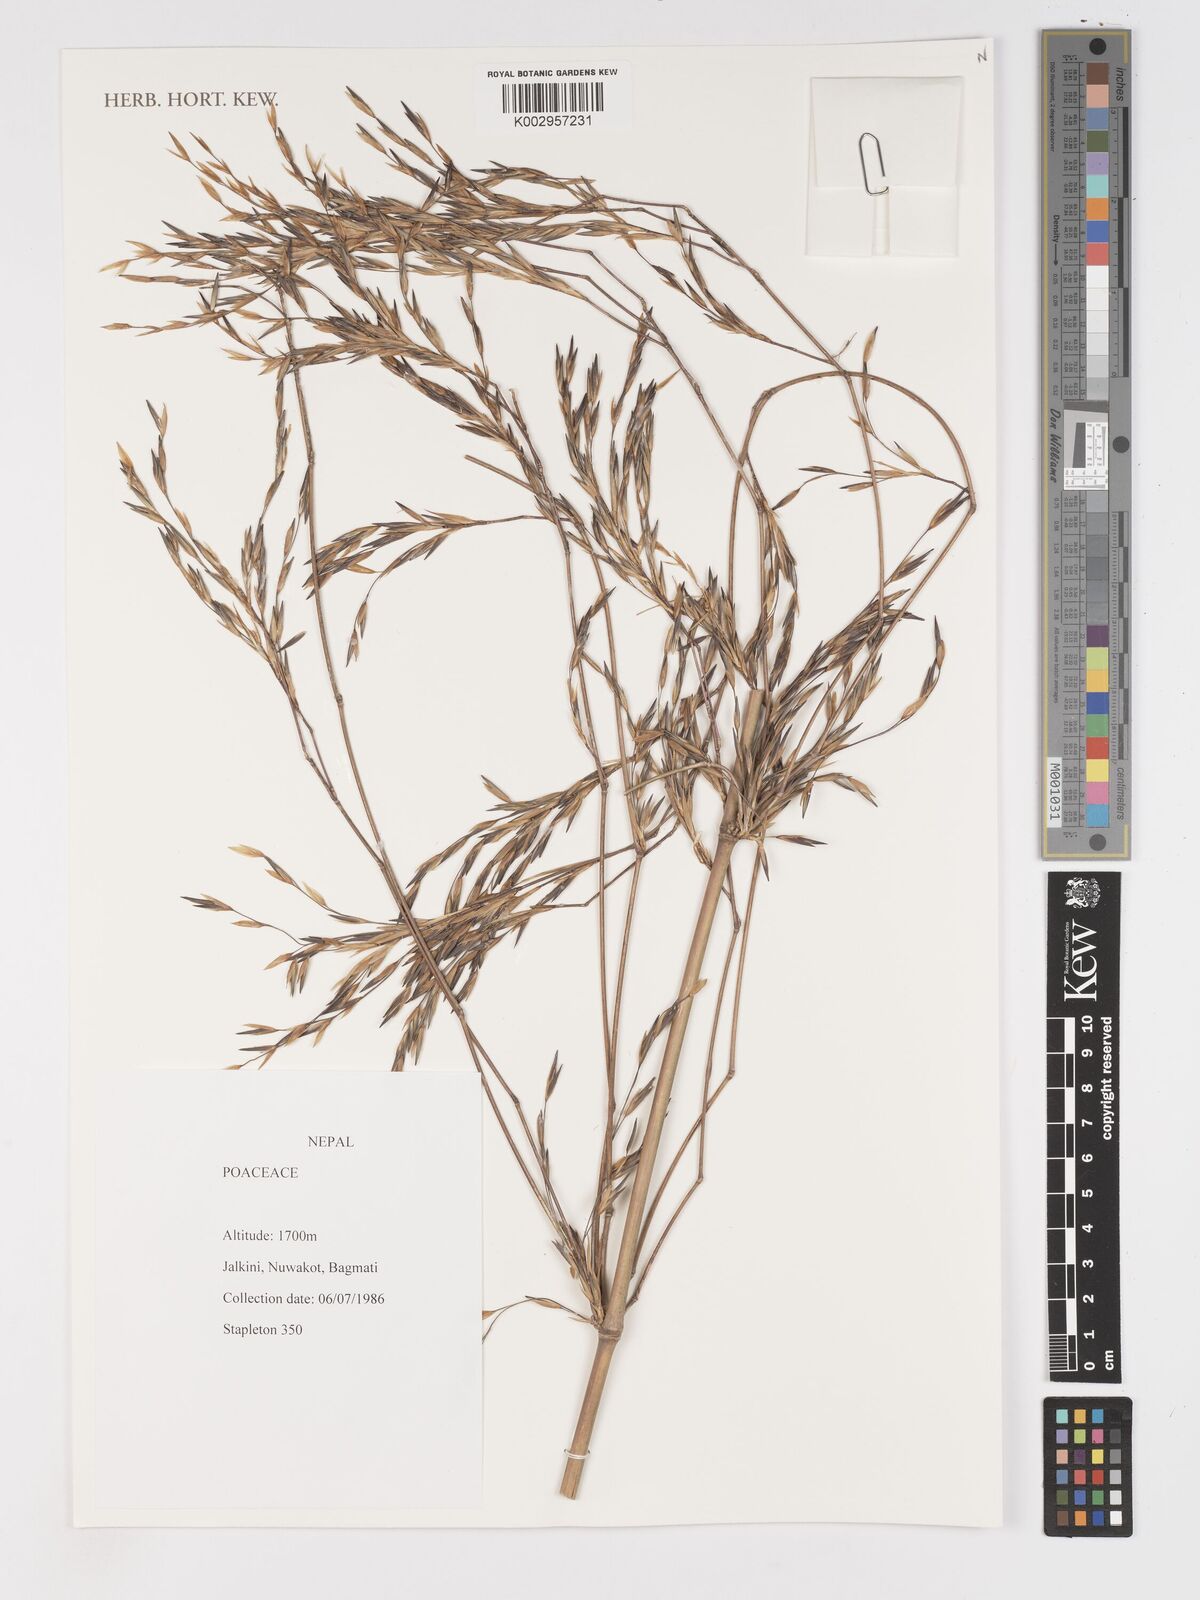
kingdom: Plantae
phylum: Tracheophyta
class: Liliopsida
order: Poales
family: Poaceae
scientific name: Poaceae
